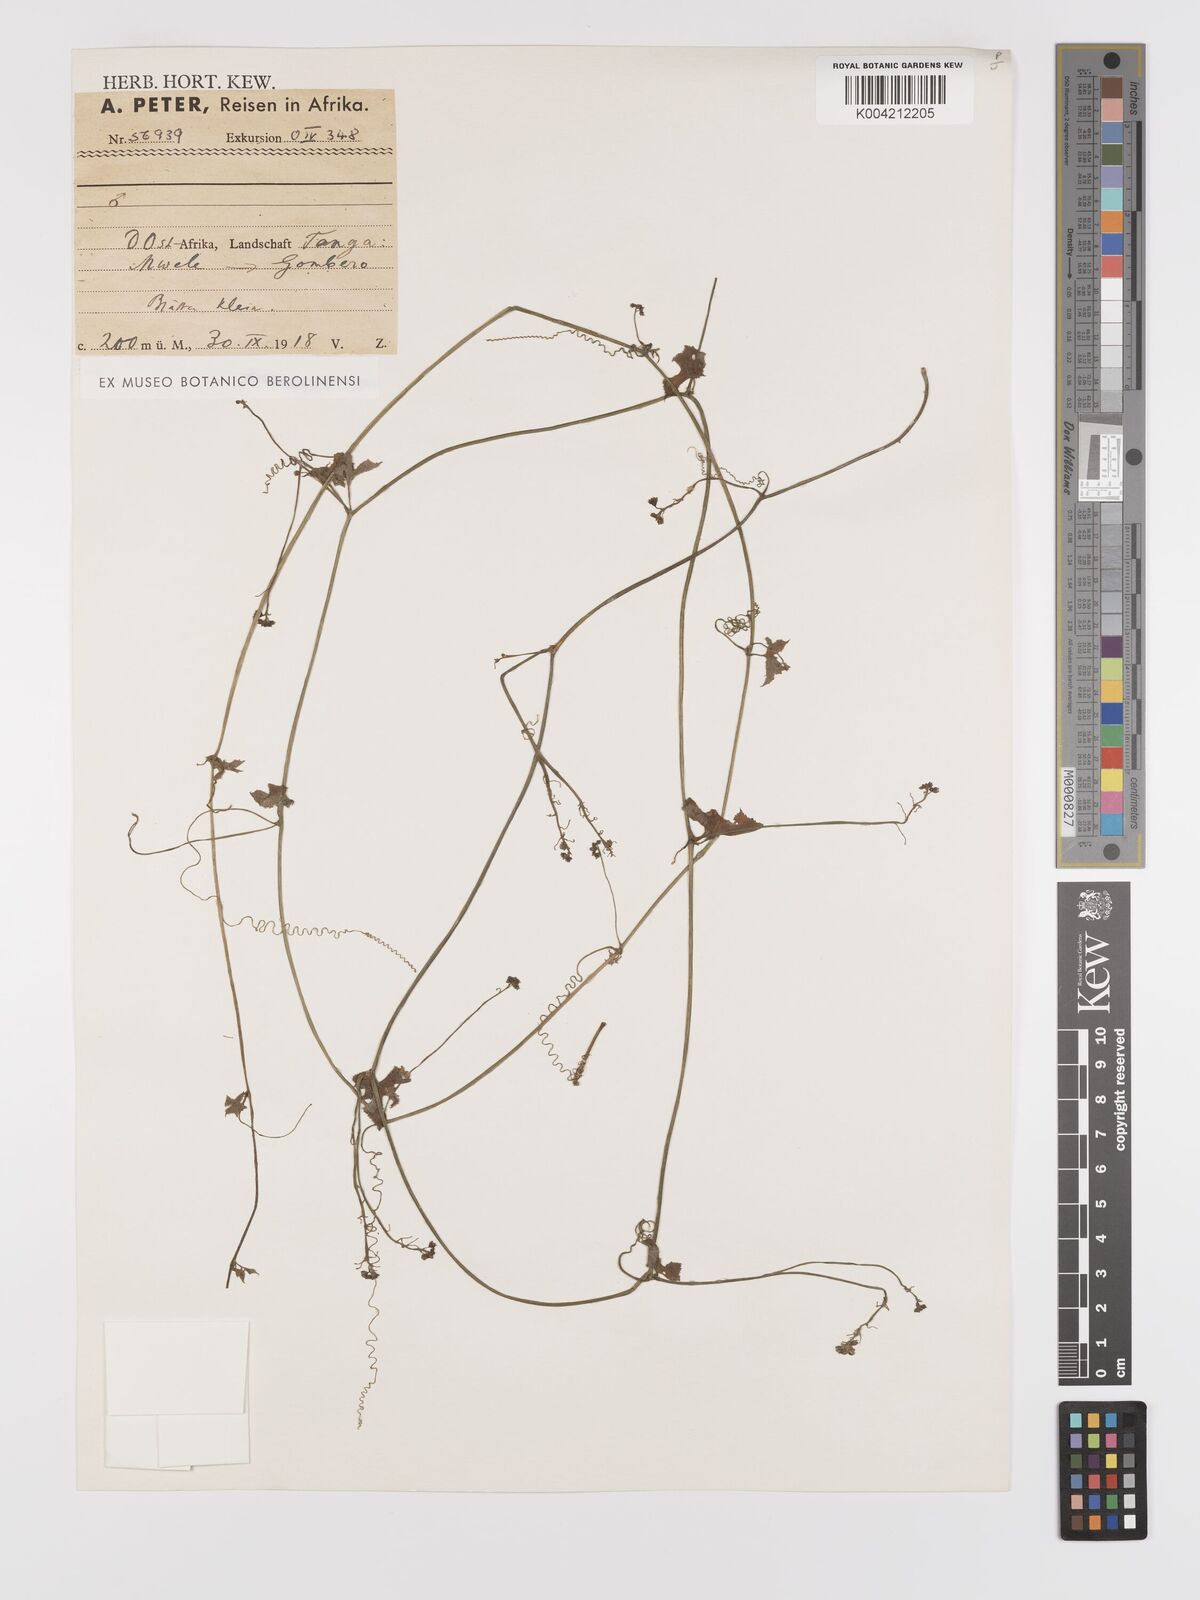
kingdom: Plantae
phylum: Tracheophyta
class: Magnoliopsida
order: Cucurbitales
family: Cucurbitaceae
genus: Kedrostis
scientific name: Kedrostis abdallae
